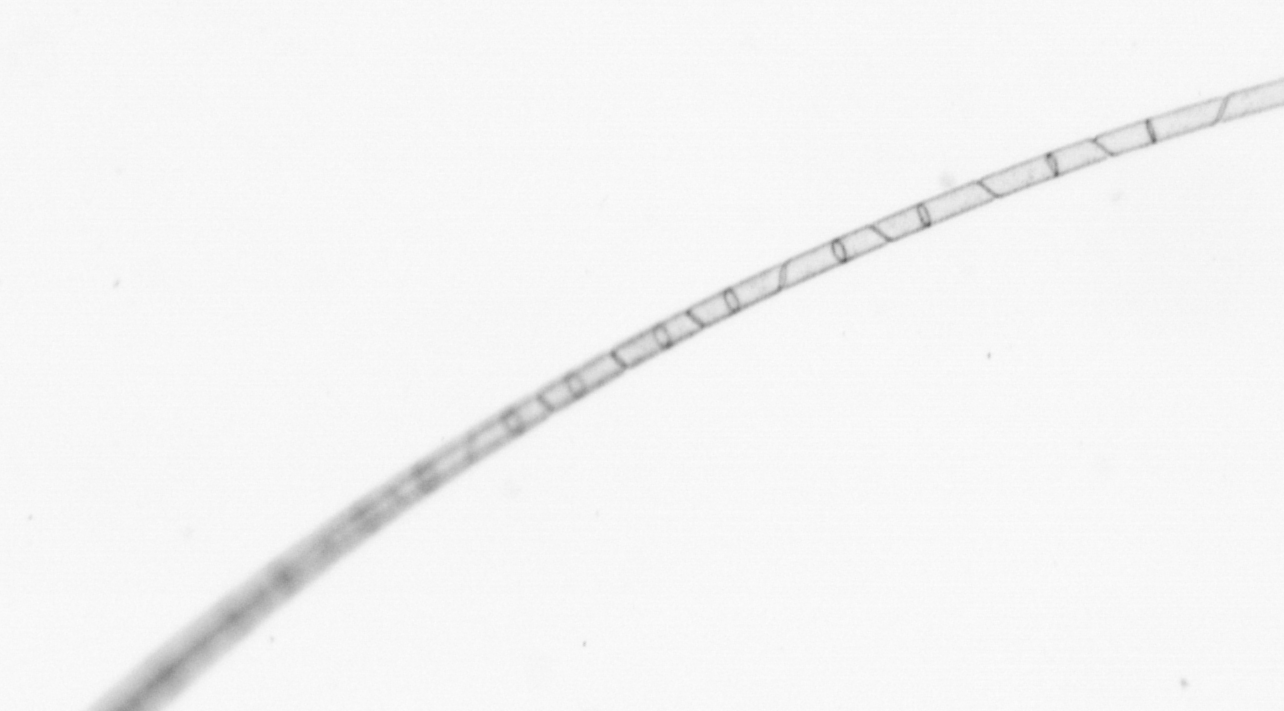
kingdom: Chromista
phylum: Ochrophyta
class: Bacillariophyceae
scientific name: Bacillariophyceae
